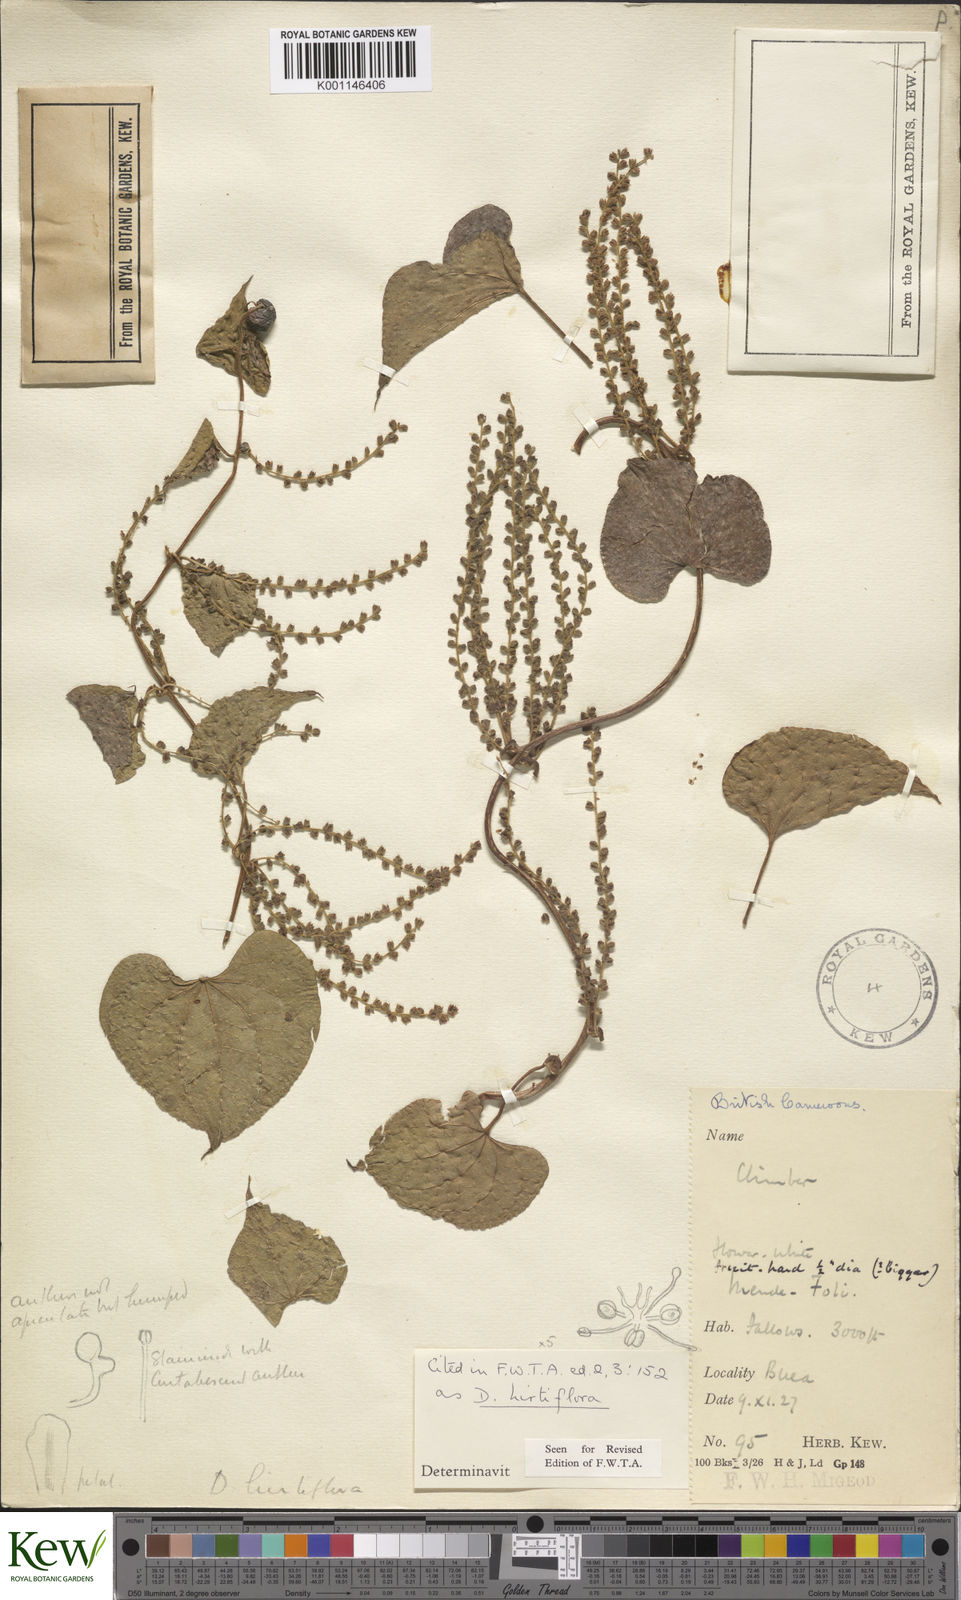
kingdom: Plantae
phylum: Tracheophyta
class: Liliopsida
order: Dioscoreales
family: Dioscoreaceae
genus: Dioscorea
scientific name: Dioscorea hirtiflora
